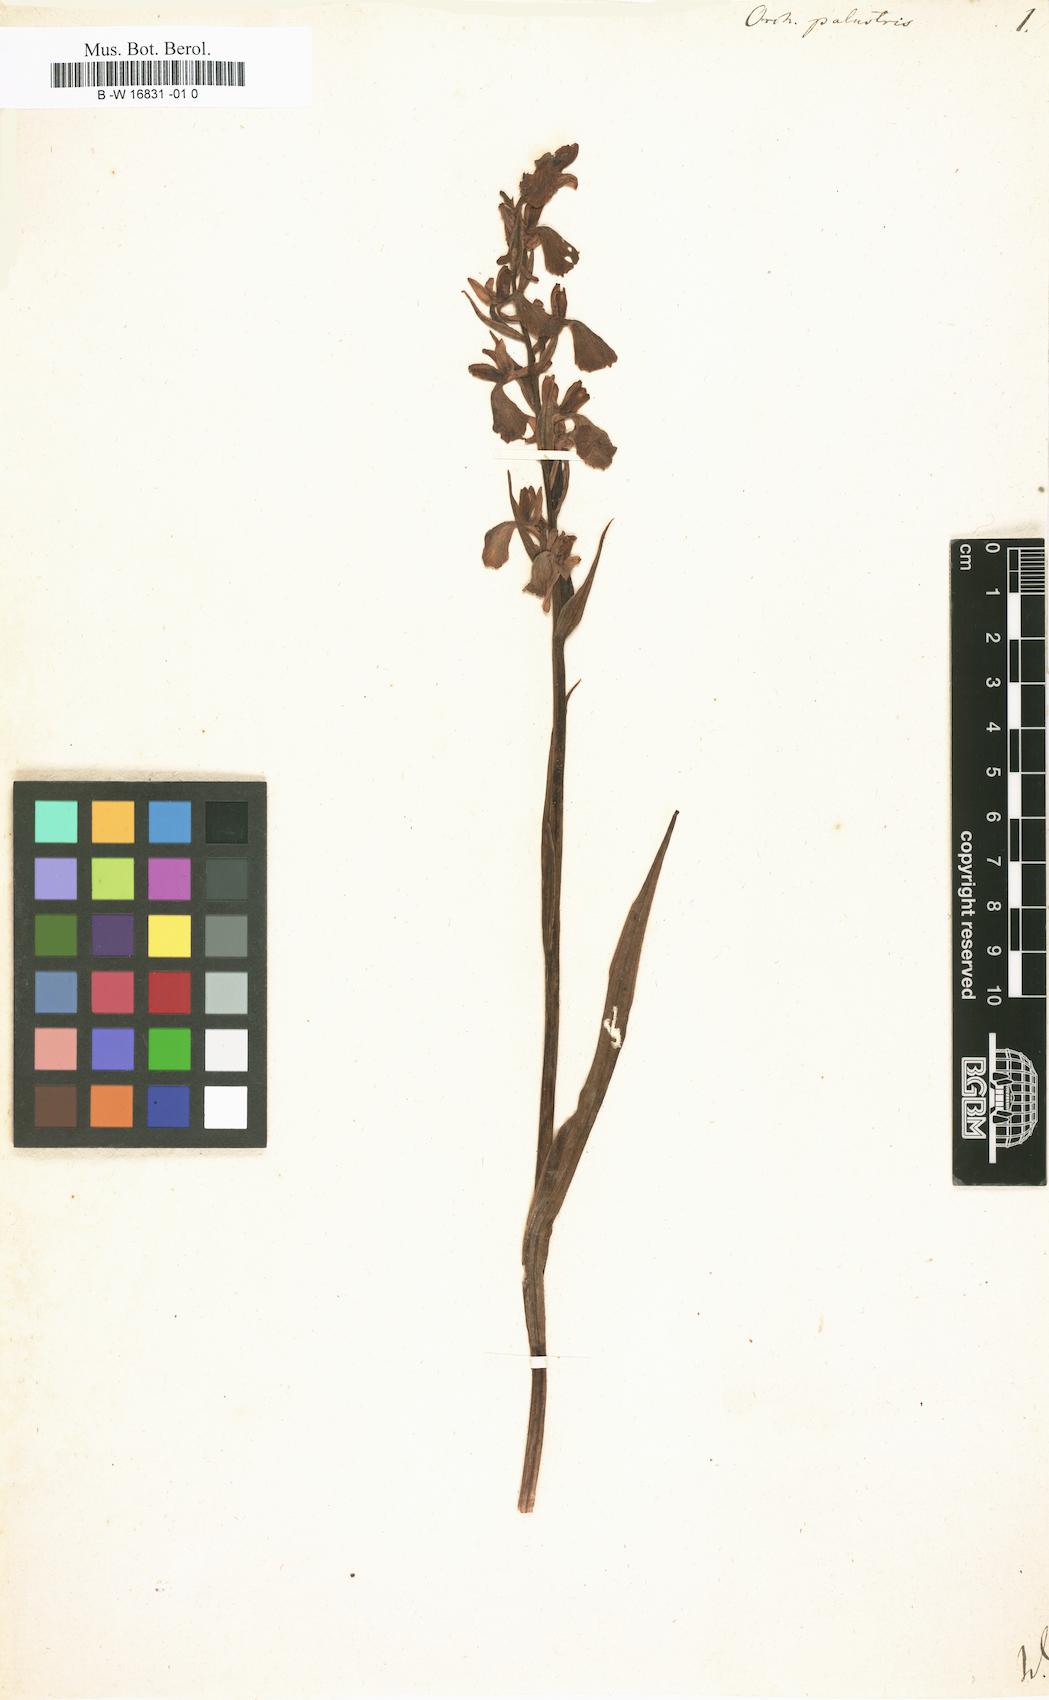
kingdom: Plantae
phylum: Tracheophyta
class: Liliopsida
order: Asparagales
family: Orchidaceae
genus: Anacamptis
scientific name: Anacamptis palustris
